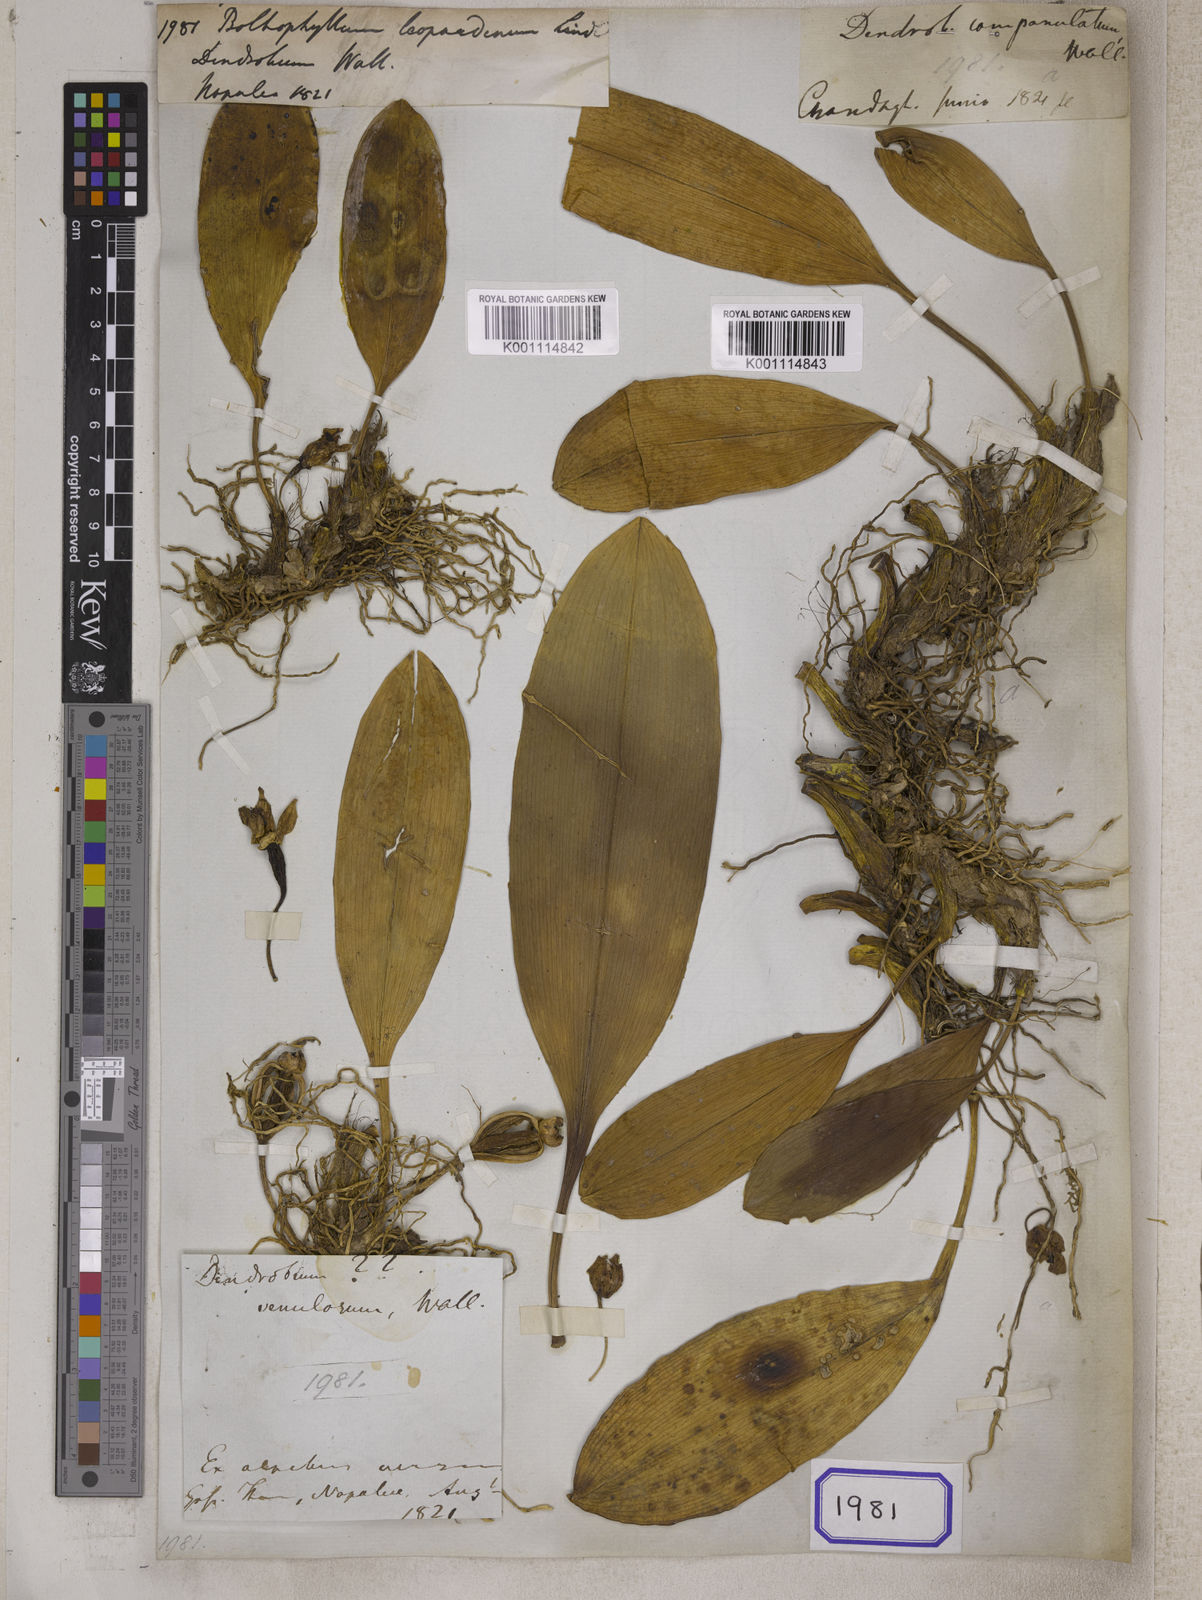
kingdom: Plantae
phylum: Tracheophyta
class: Liliopsida
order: Asparagales
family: Orchidaceae
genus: Bulbophyllum
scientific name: Bulbophyllum leopardinum
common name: Leopard spotted bulbophyllum
